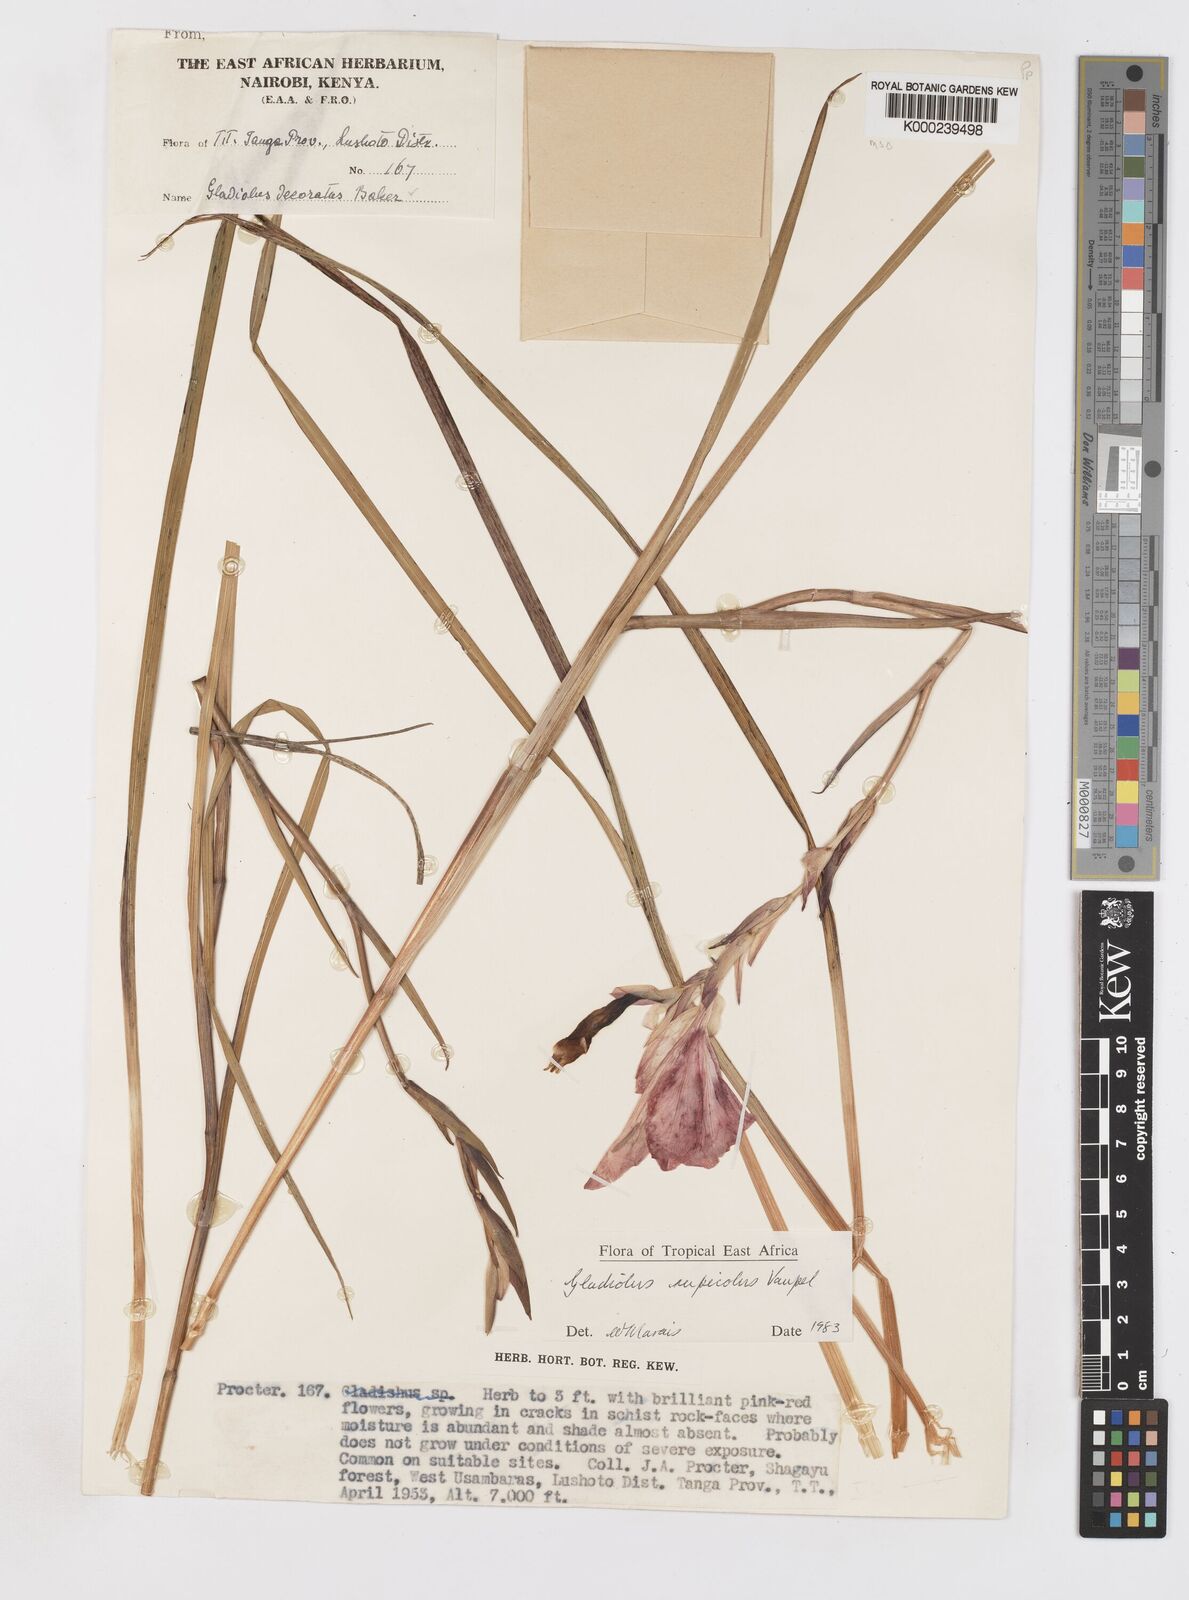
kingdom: Plantae
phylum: Tracheophyta
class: Liliopsida
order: Asparagales
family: Iridaceae
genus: Gladiolus
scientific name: Gladiolus rupicola
